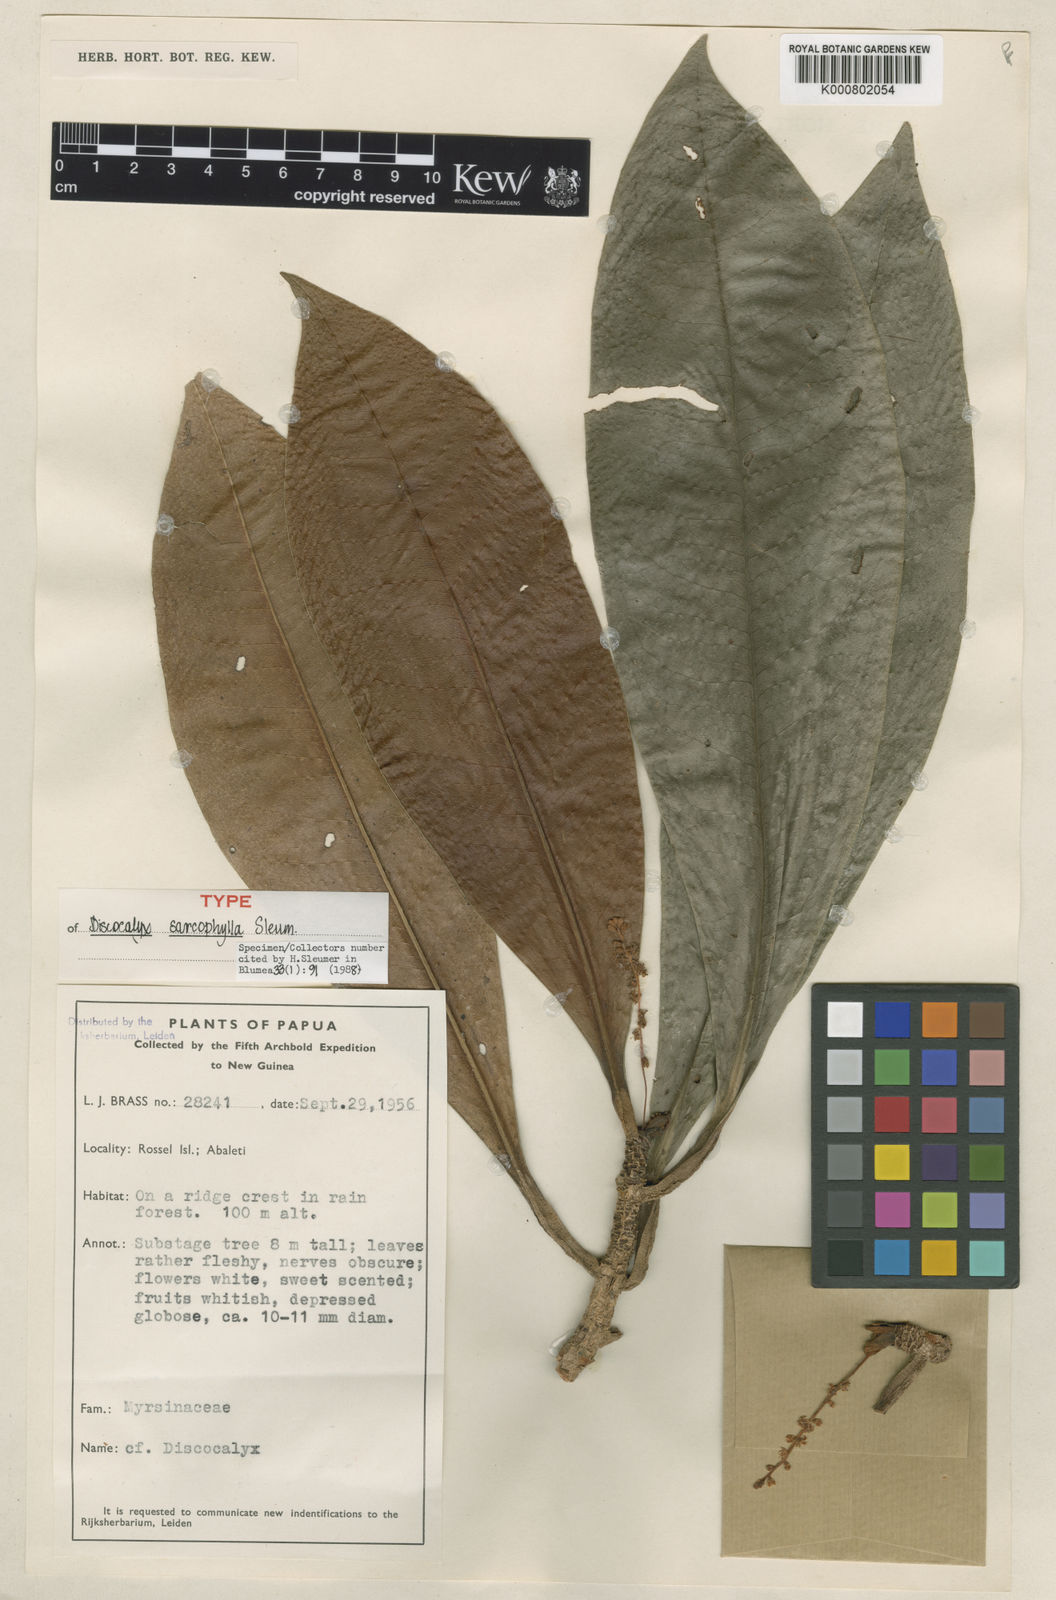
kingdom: Plantae
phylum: Tracheophyta
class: Magnoliopsida
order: Ericales
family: Primulaceae
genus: Discocalyx
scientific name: Discocalyx sarcophylla
